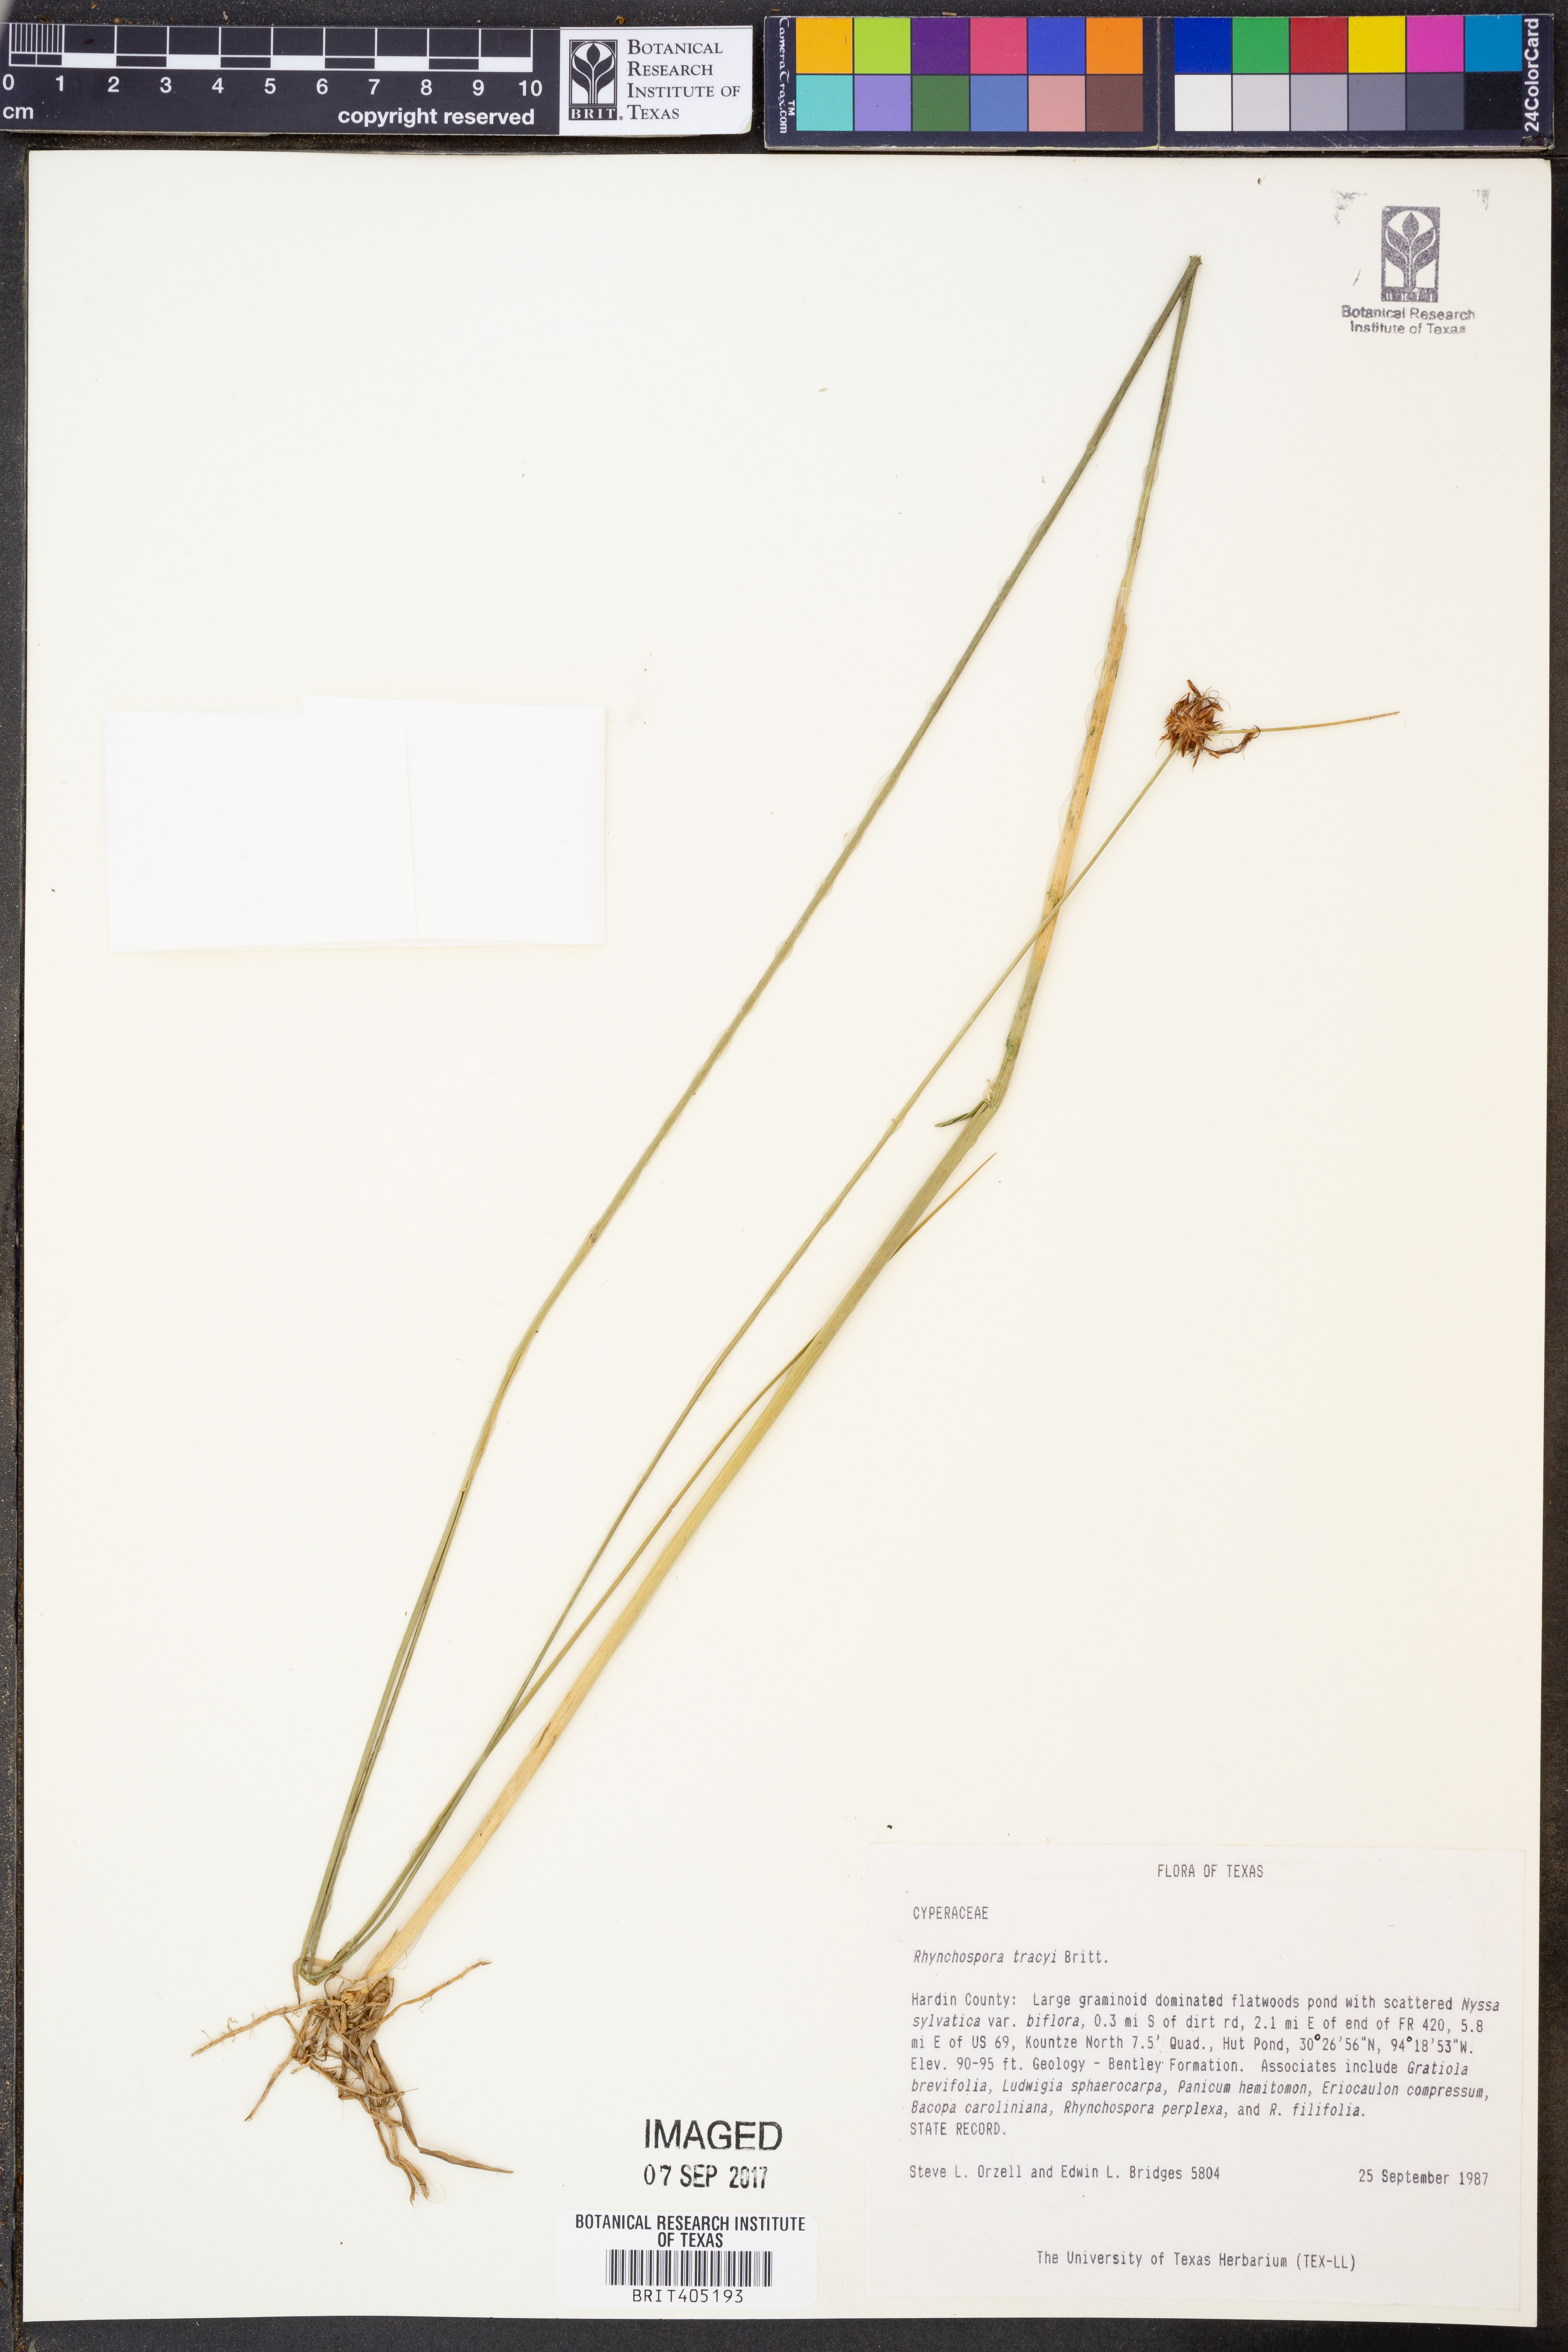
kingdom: Plantae
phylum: Tracheophyta
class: Liliopsida
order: Poales
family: Cyperaceae
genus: Rhynchospora
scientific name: Rhynchospora tracyi
